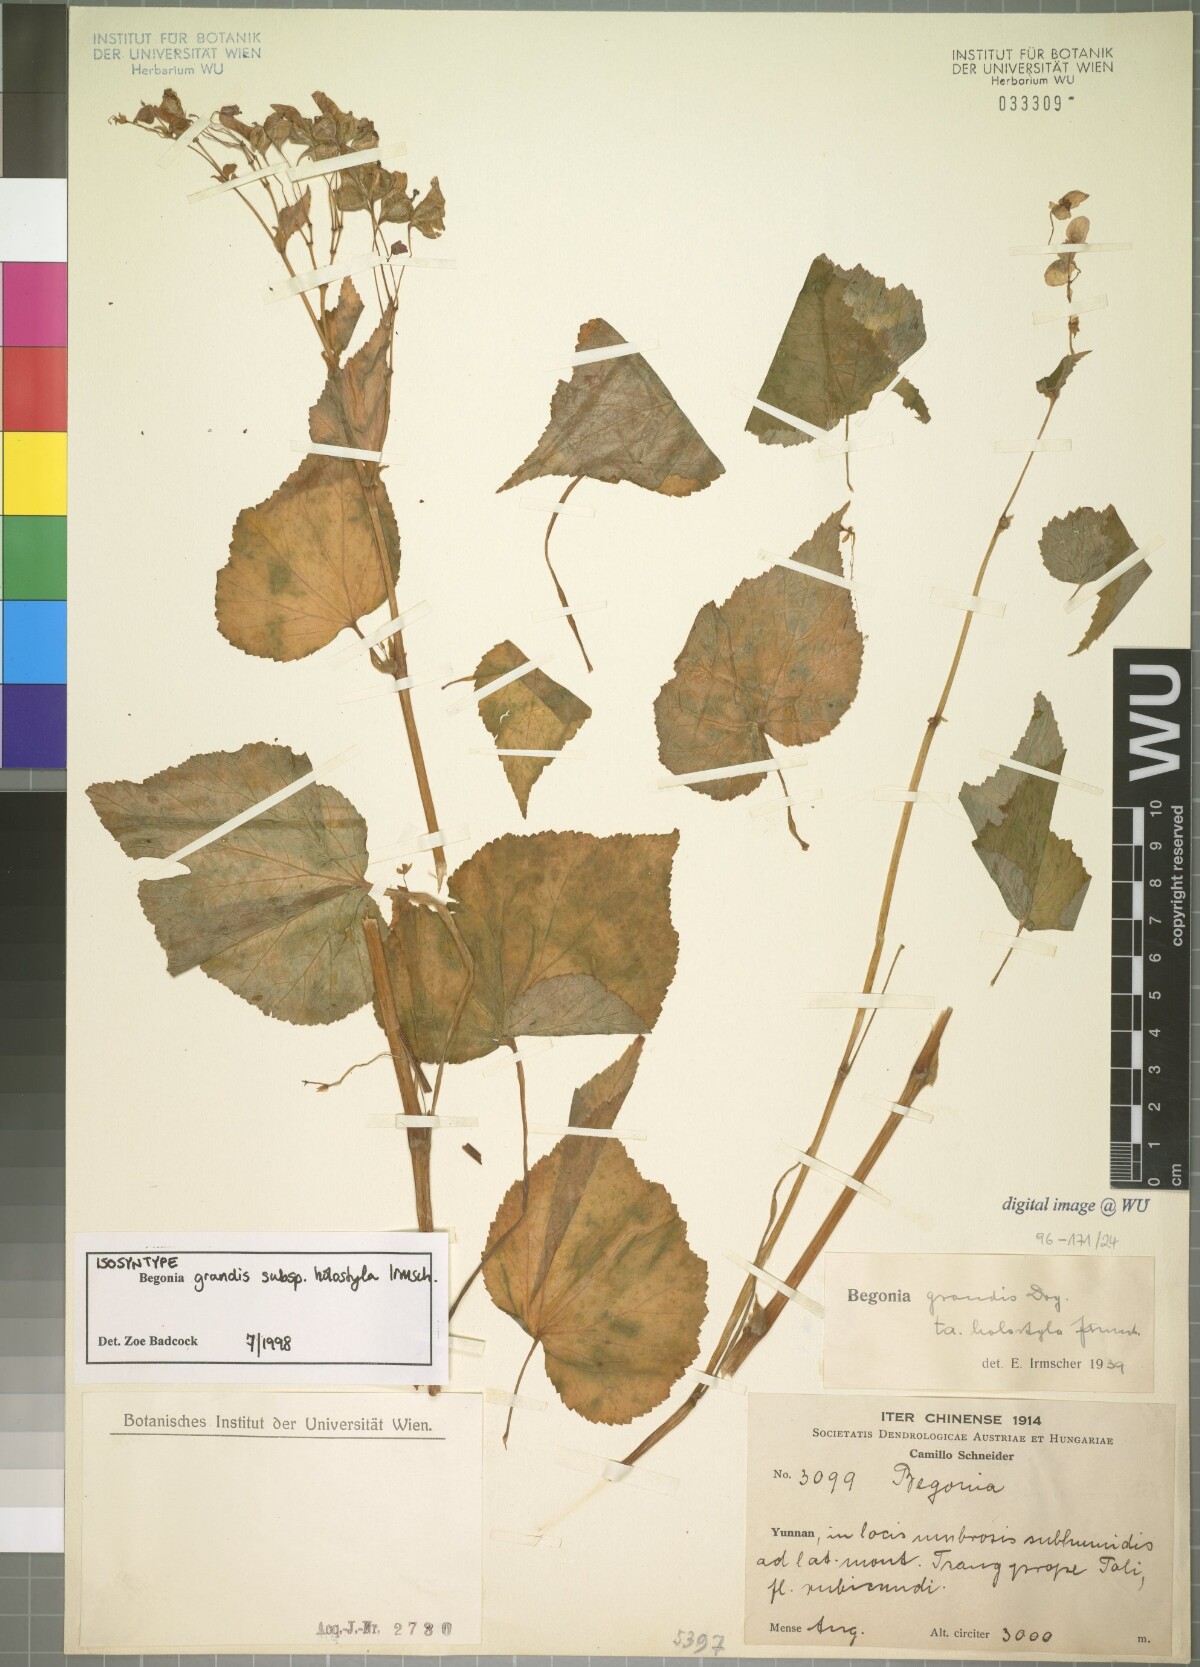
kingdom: Plantae
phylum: Tracheophyta
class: Magnoliopsida
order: Cucurbitales
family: Begoniaceae
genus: Begonia
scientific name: Begonia grandis
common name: Hardy begonia
